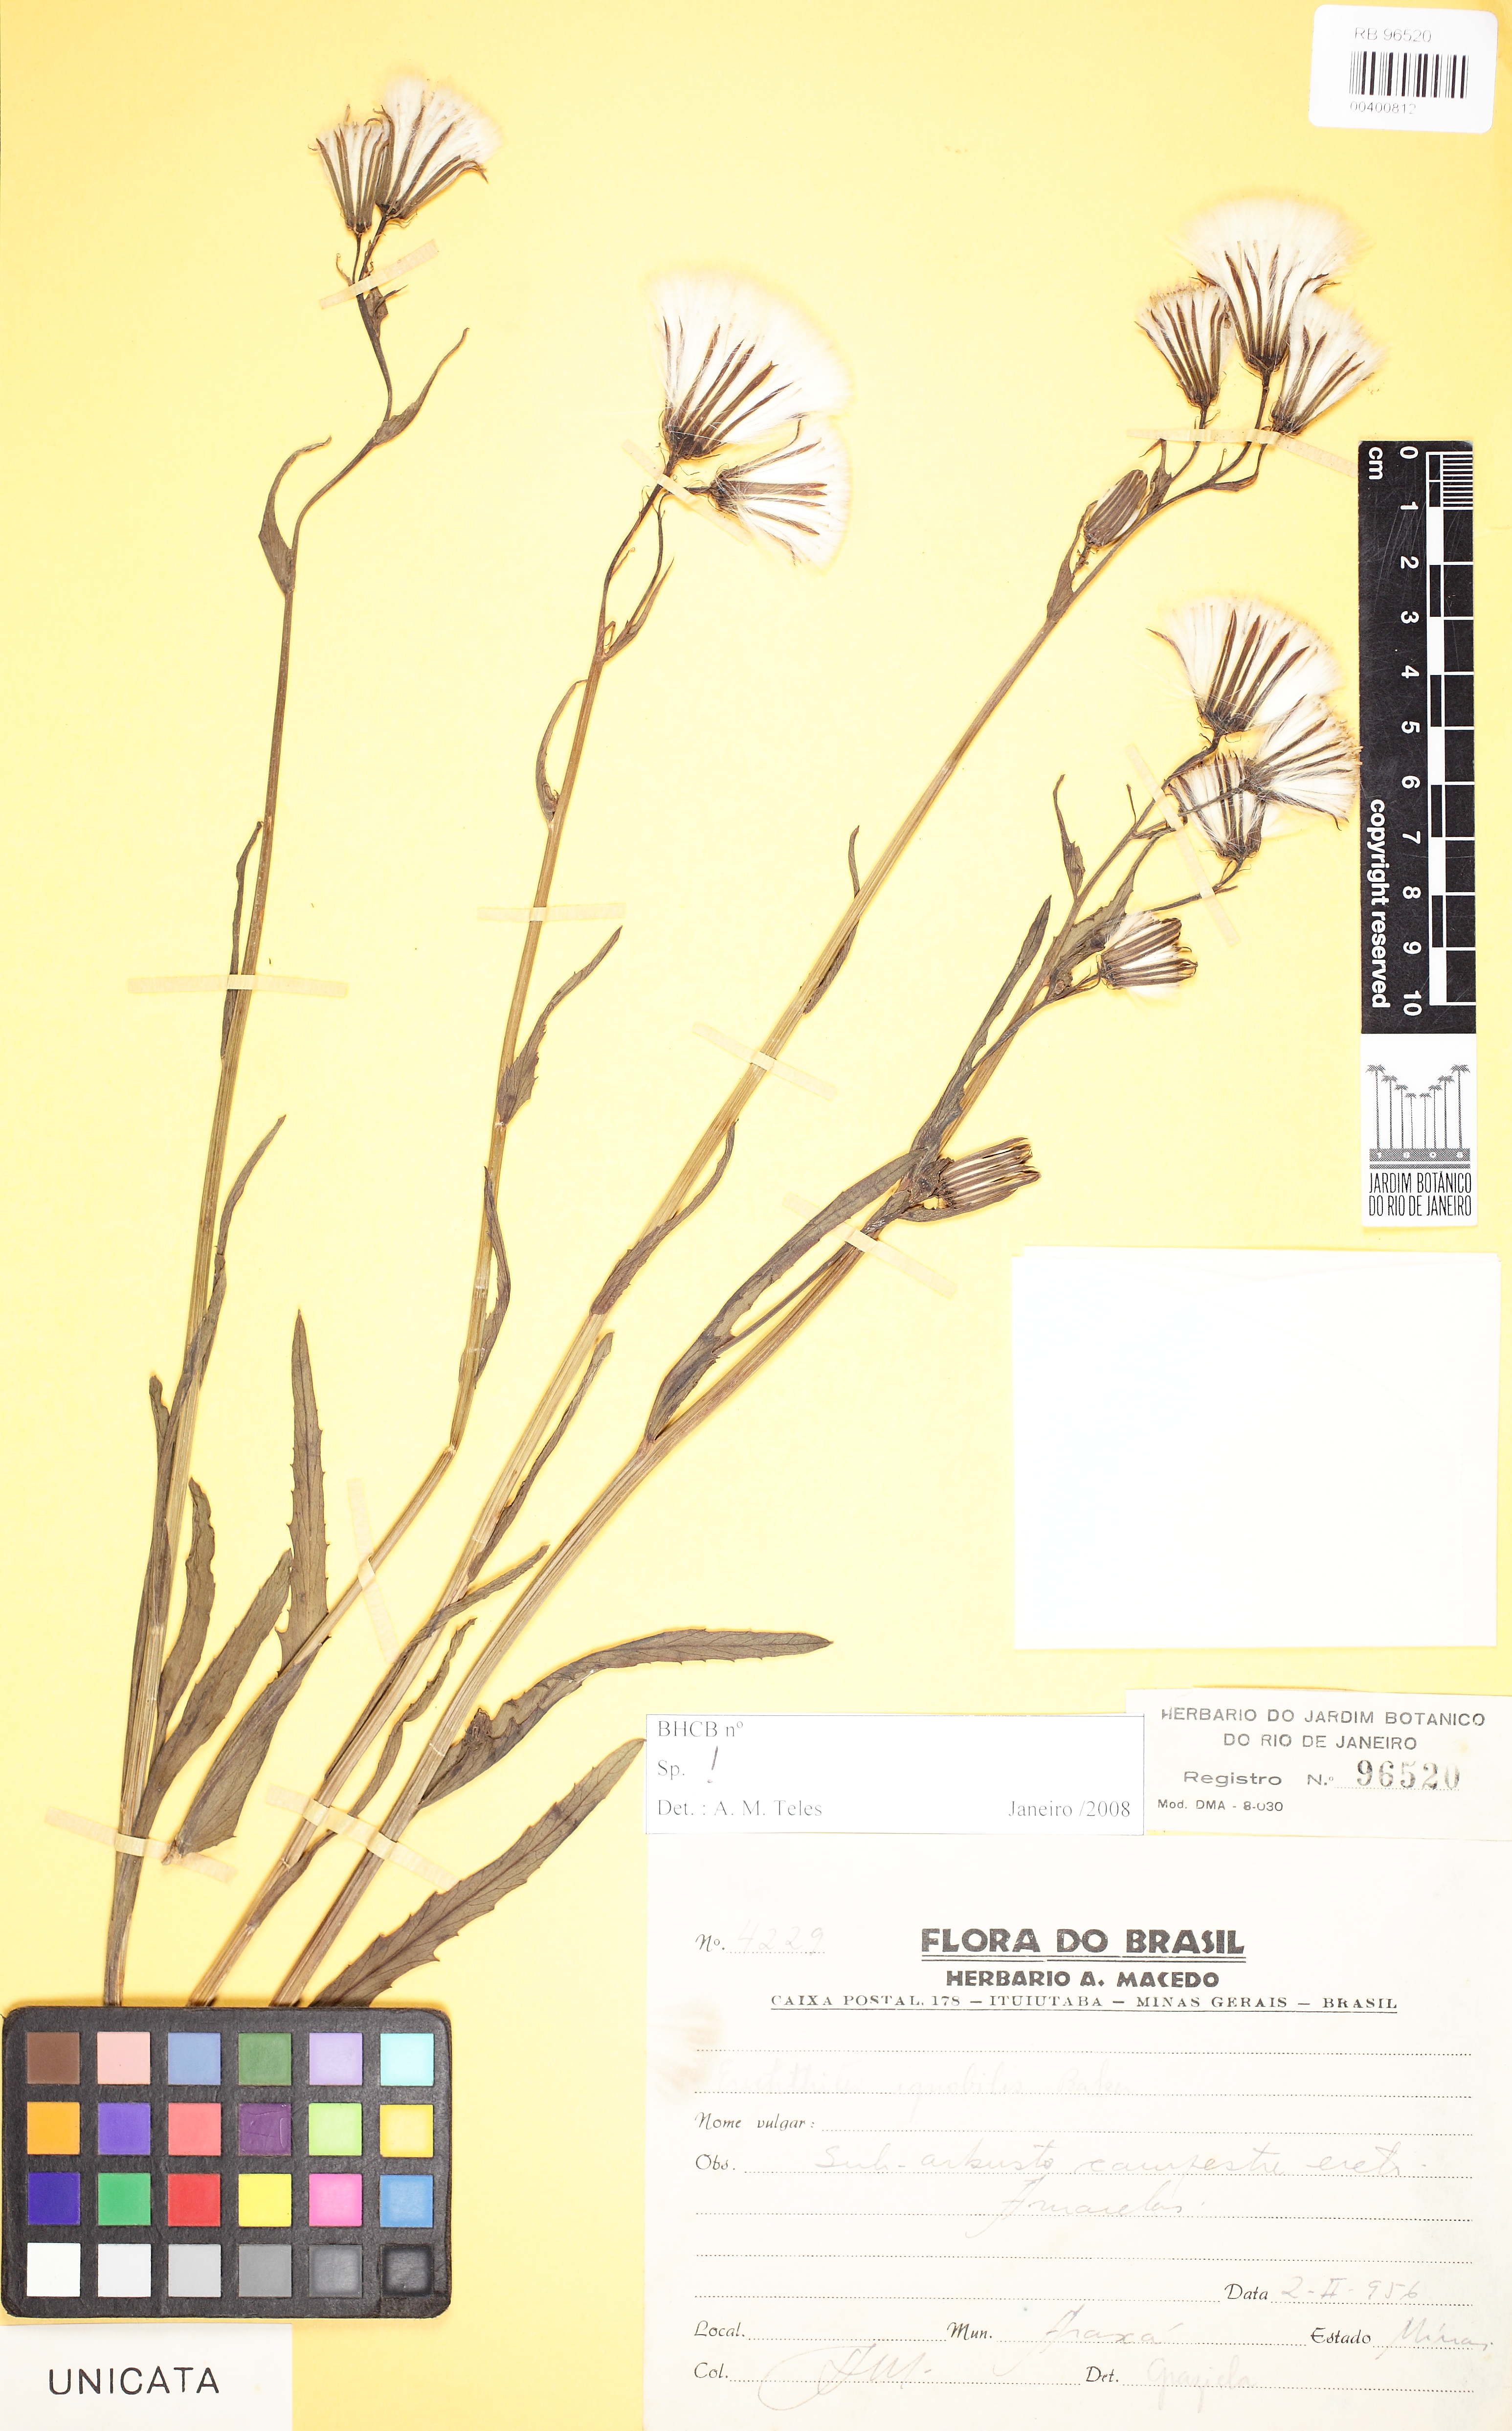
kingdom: Plantae
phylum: Tracheophyta
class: Magnoliopsida
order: Asterales
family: Asteraceae
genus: Erechtites
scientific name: Erechtites ignobilis
